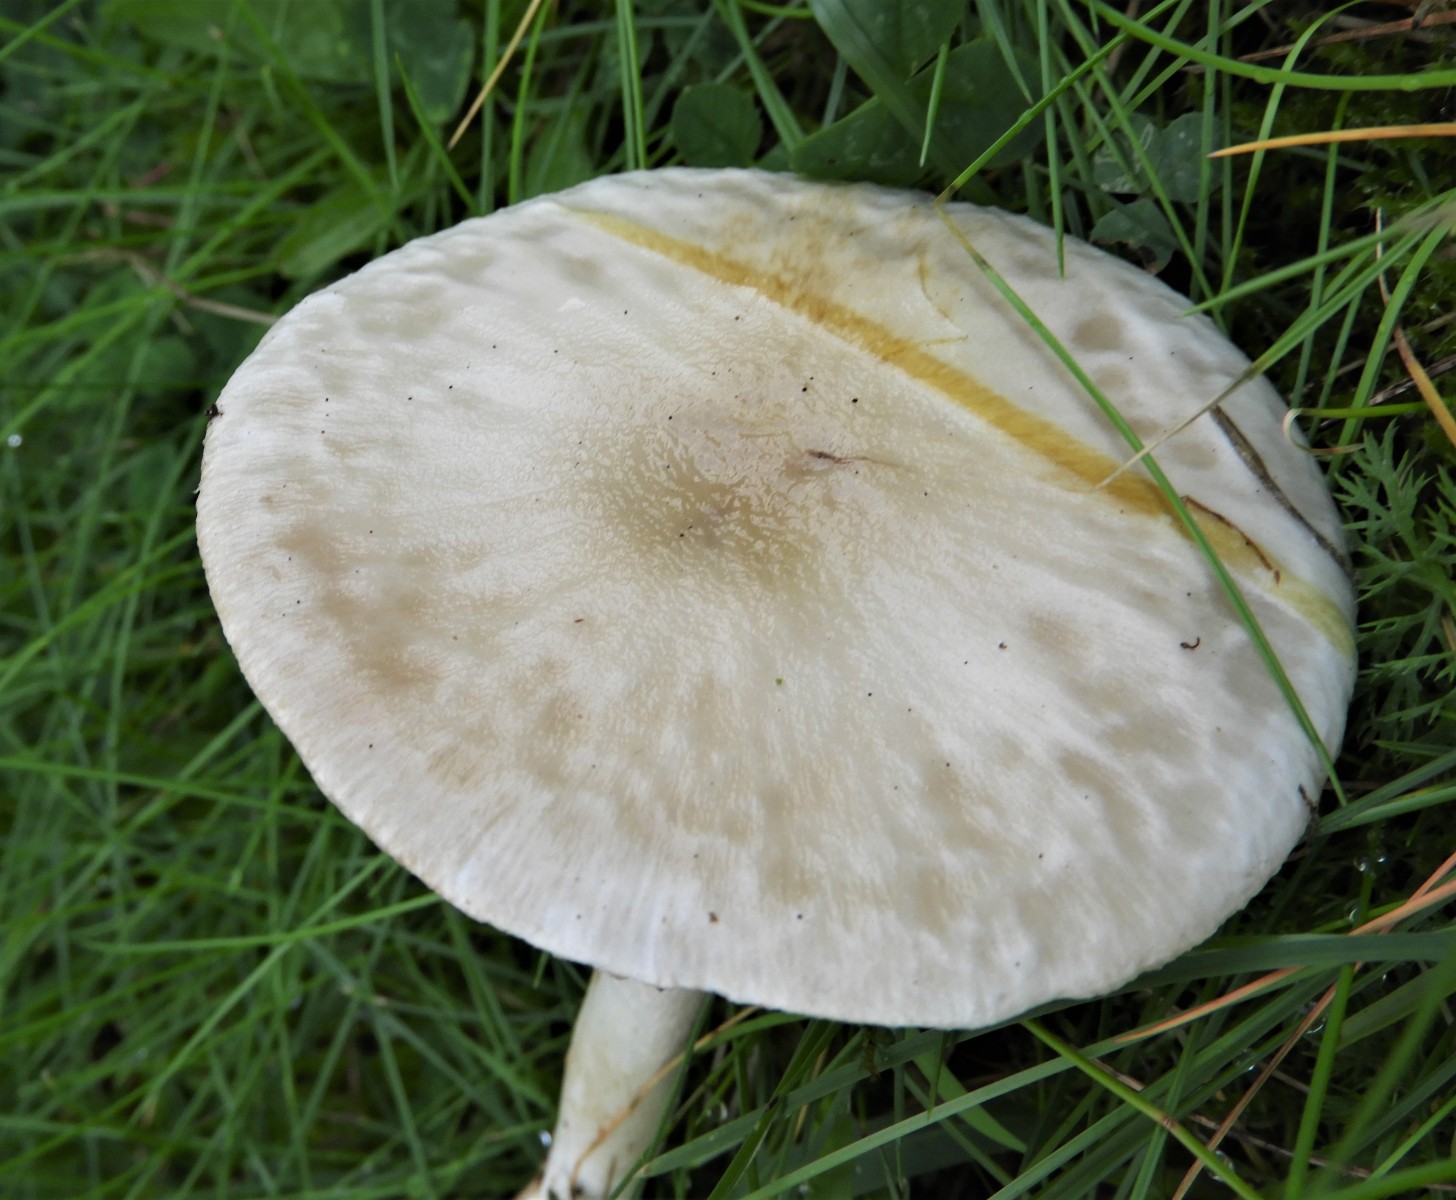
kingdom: Fungi
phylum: Basidiomycota
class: Agaricomycetes
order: Agaricales
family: Agaricaceae
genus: Leucoagaricus
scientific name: Leucoagaricus leucothites
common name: rosabladet silkehat
